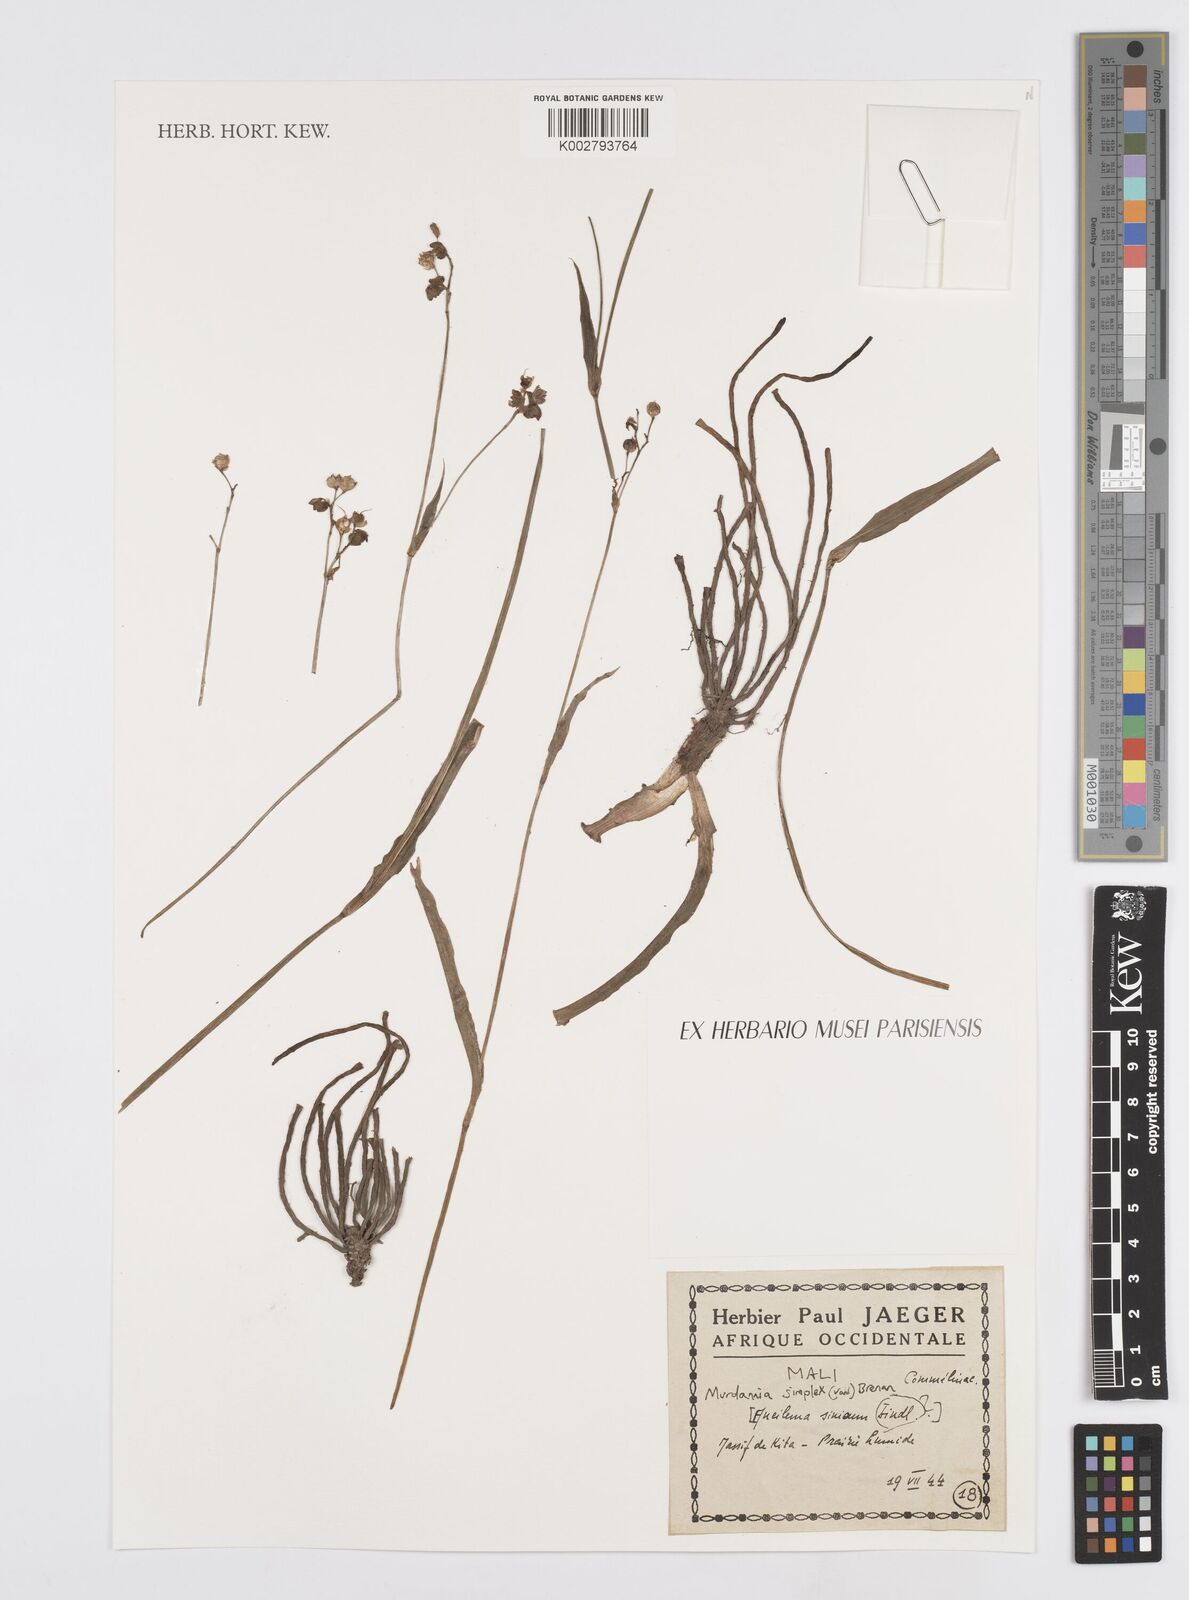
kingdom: Plantae
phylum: Tracheophyta
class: Liliopsida
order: Commelinales
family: Commelinaceae
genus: Murdannia
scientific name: Murdannia simplex
